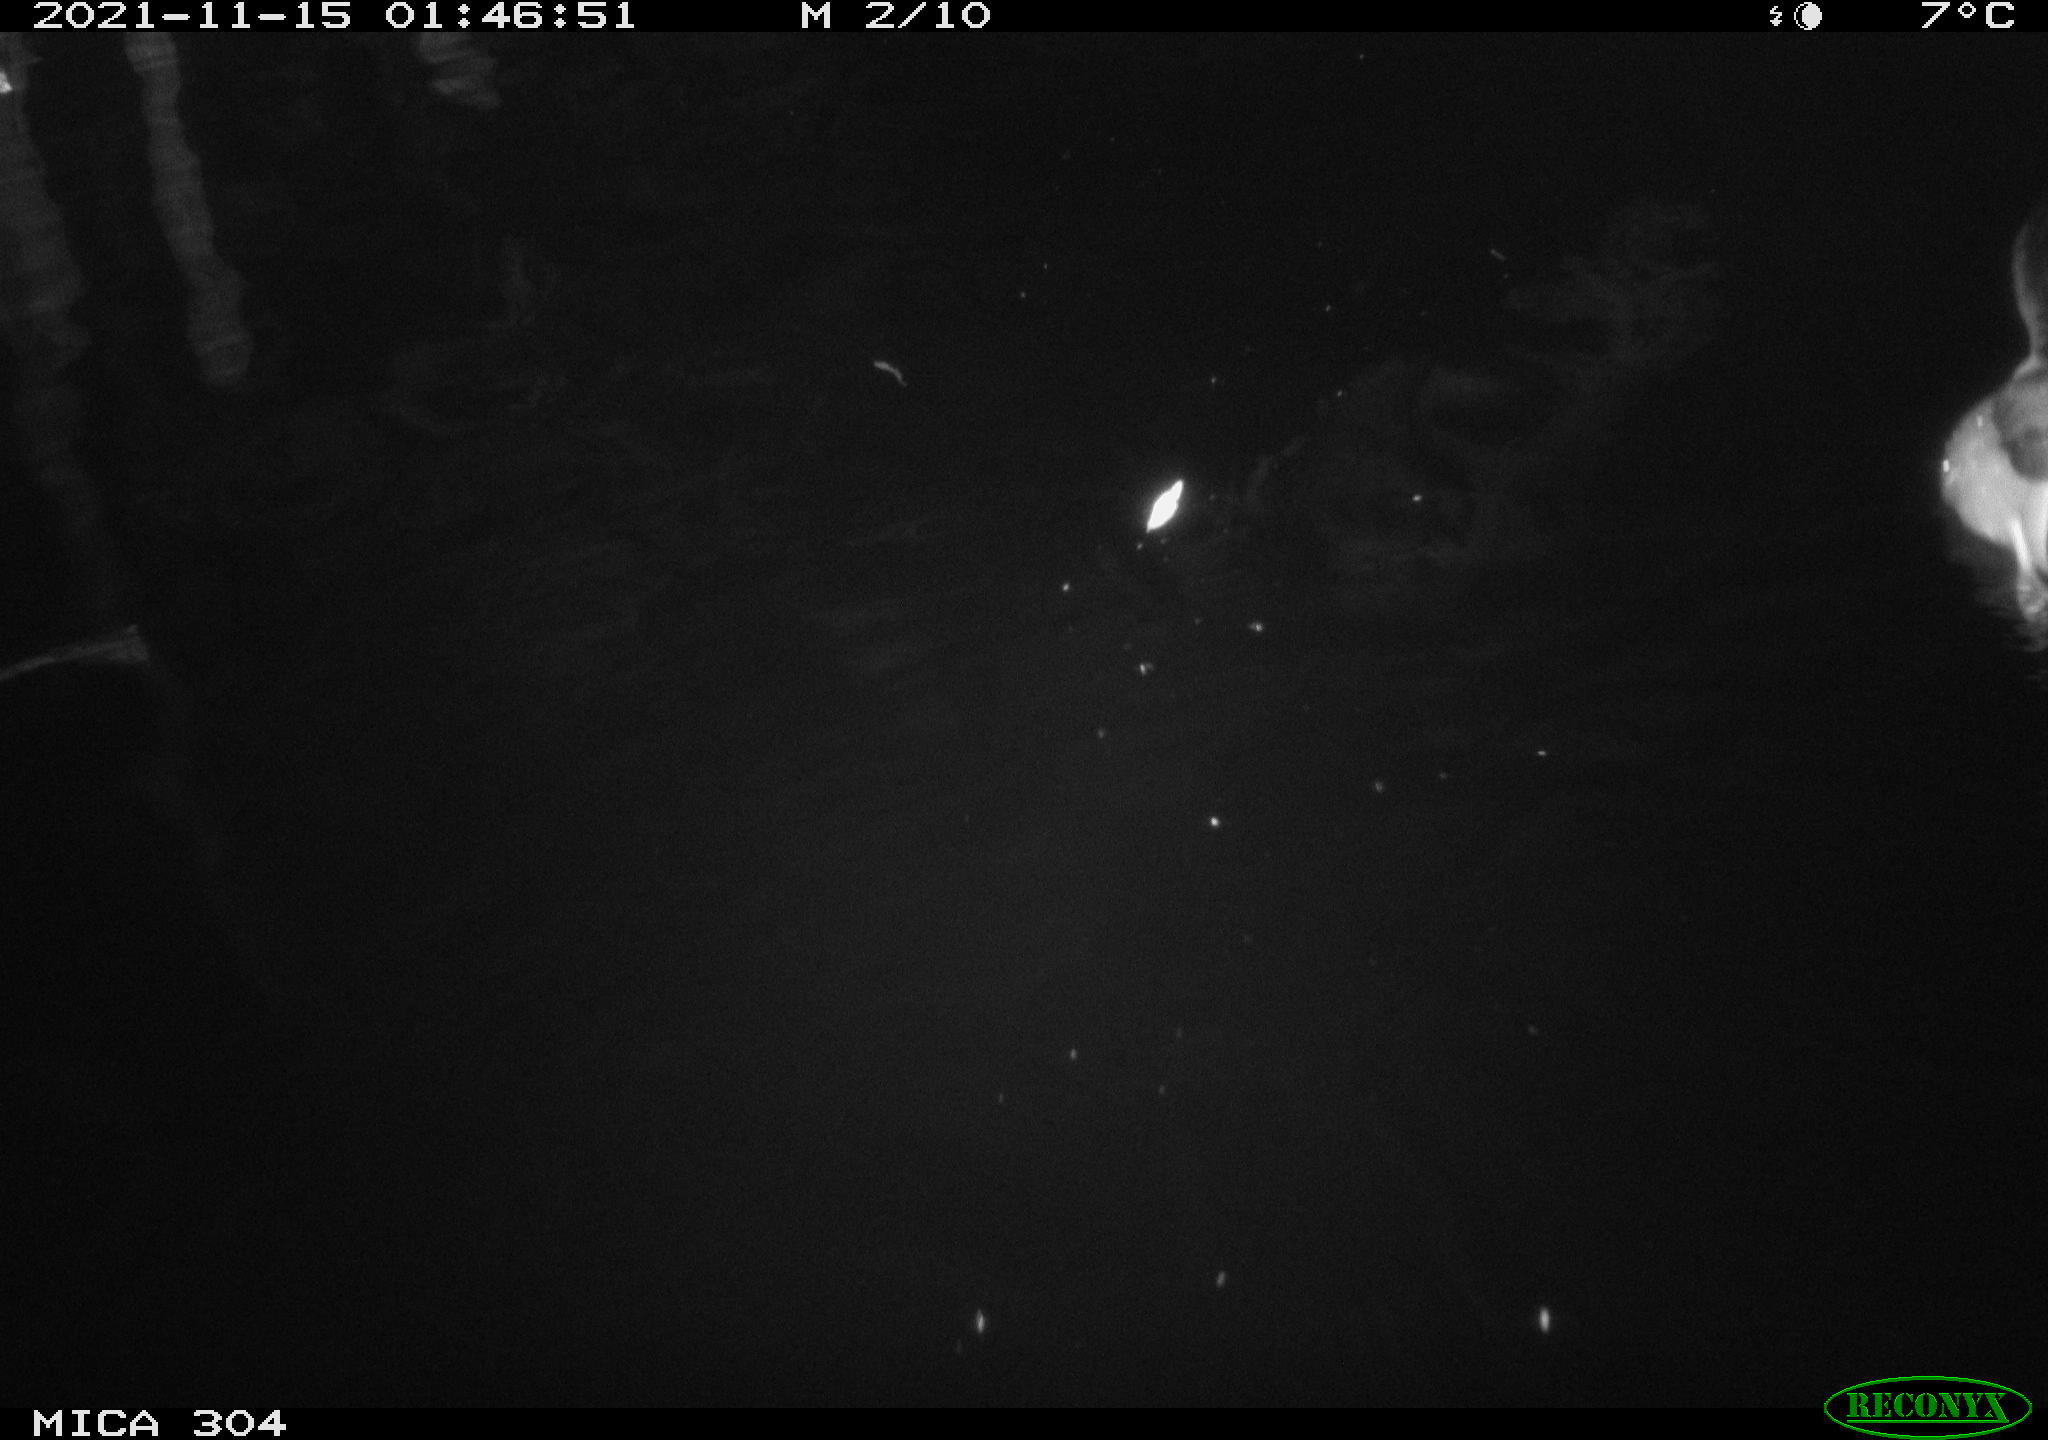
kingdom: Animalia
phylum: Chordata
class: Aves
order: Anseriformes
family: Anatidae
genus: Anas
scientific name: Anas platyrhynchos
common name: Mallard
